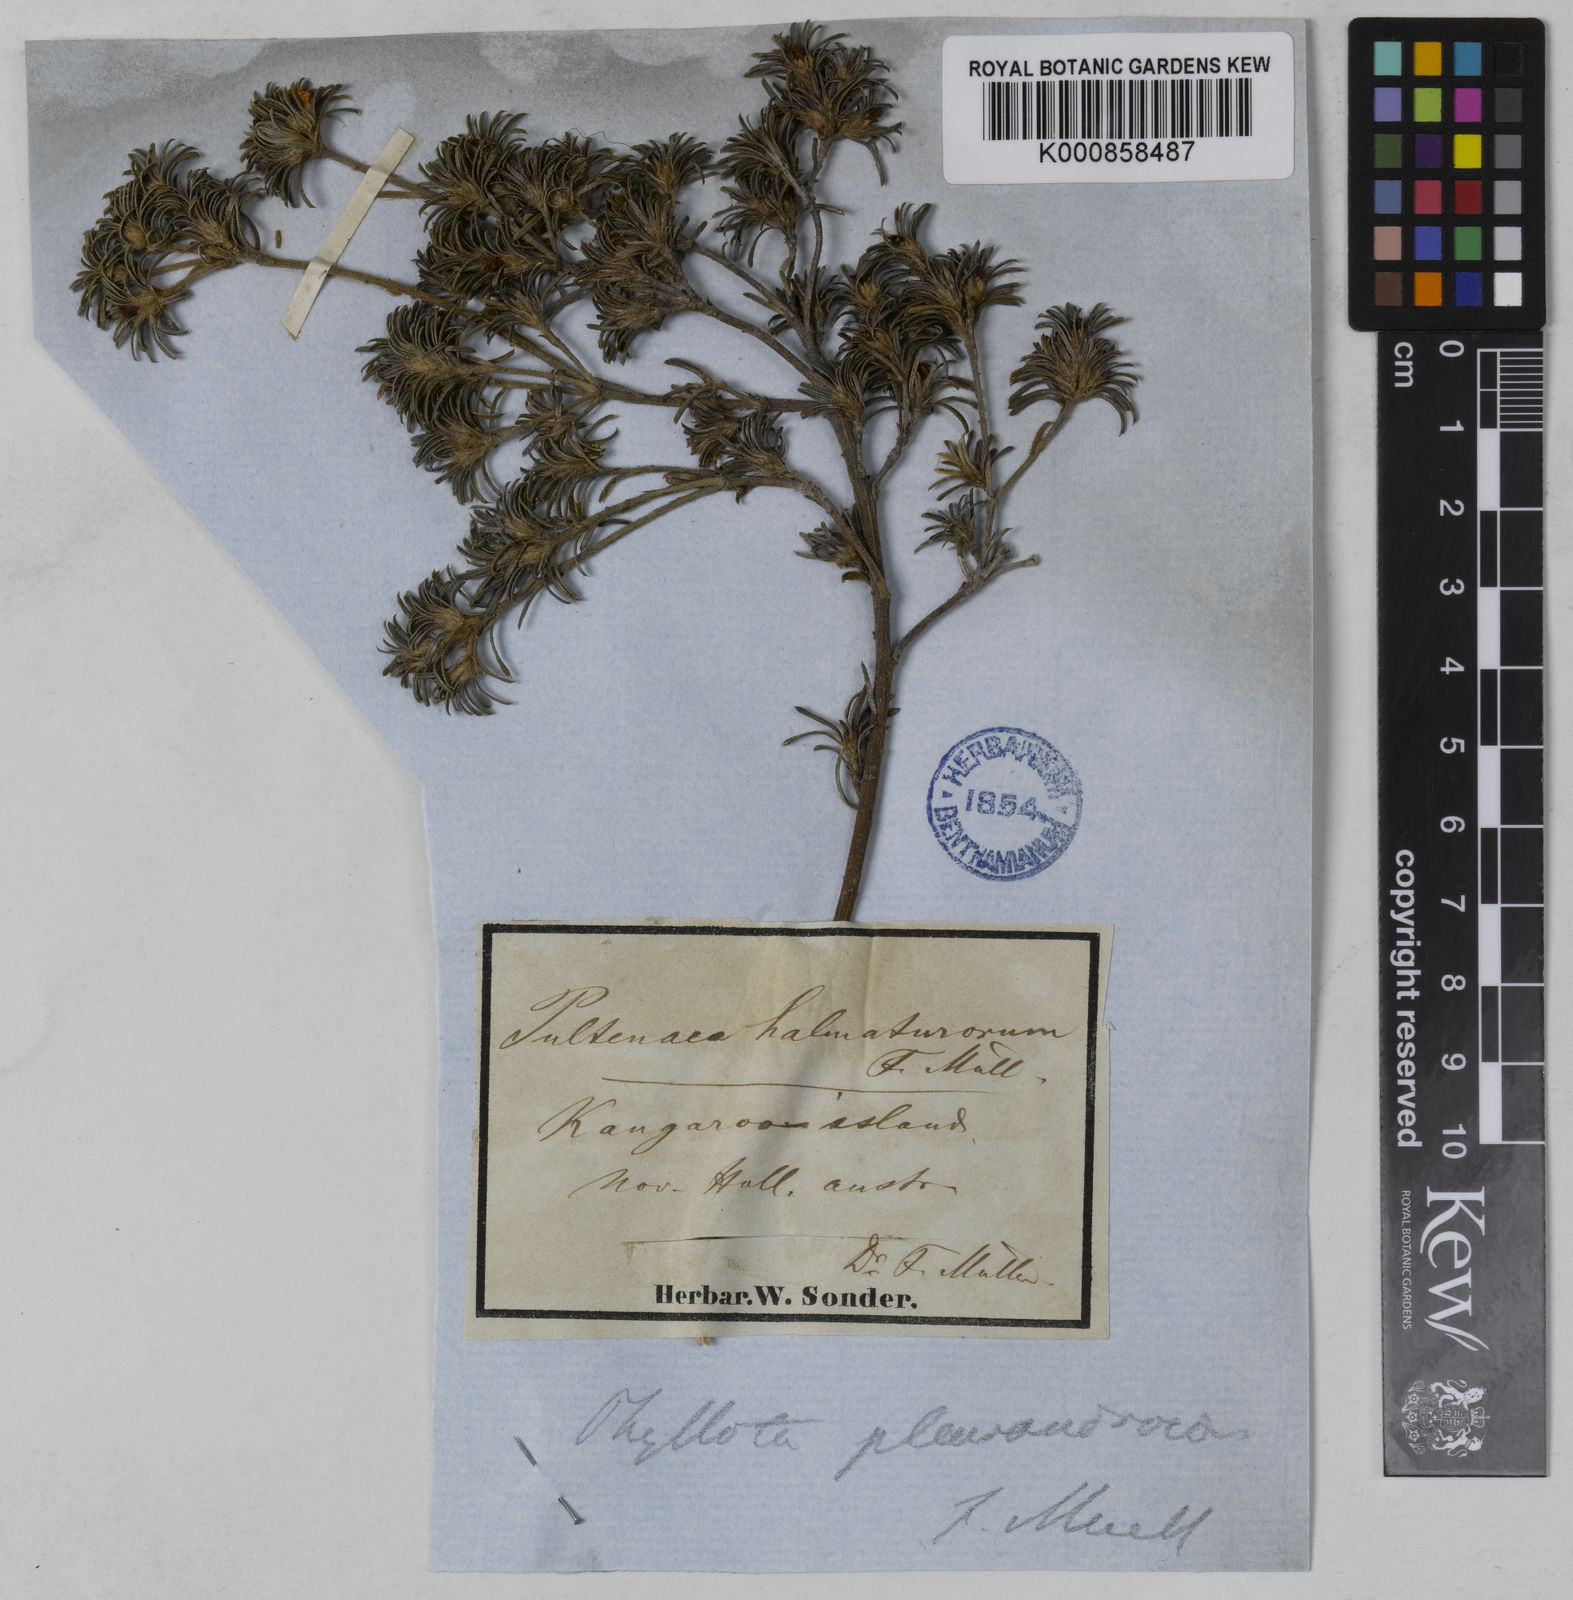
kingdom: Plantae
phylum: Tracheophyta
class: Magnoliopsida
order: Fabales
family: Fabaceae
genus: Phyllota
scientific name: Phyllota pleurandroides
